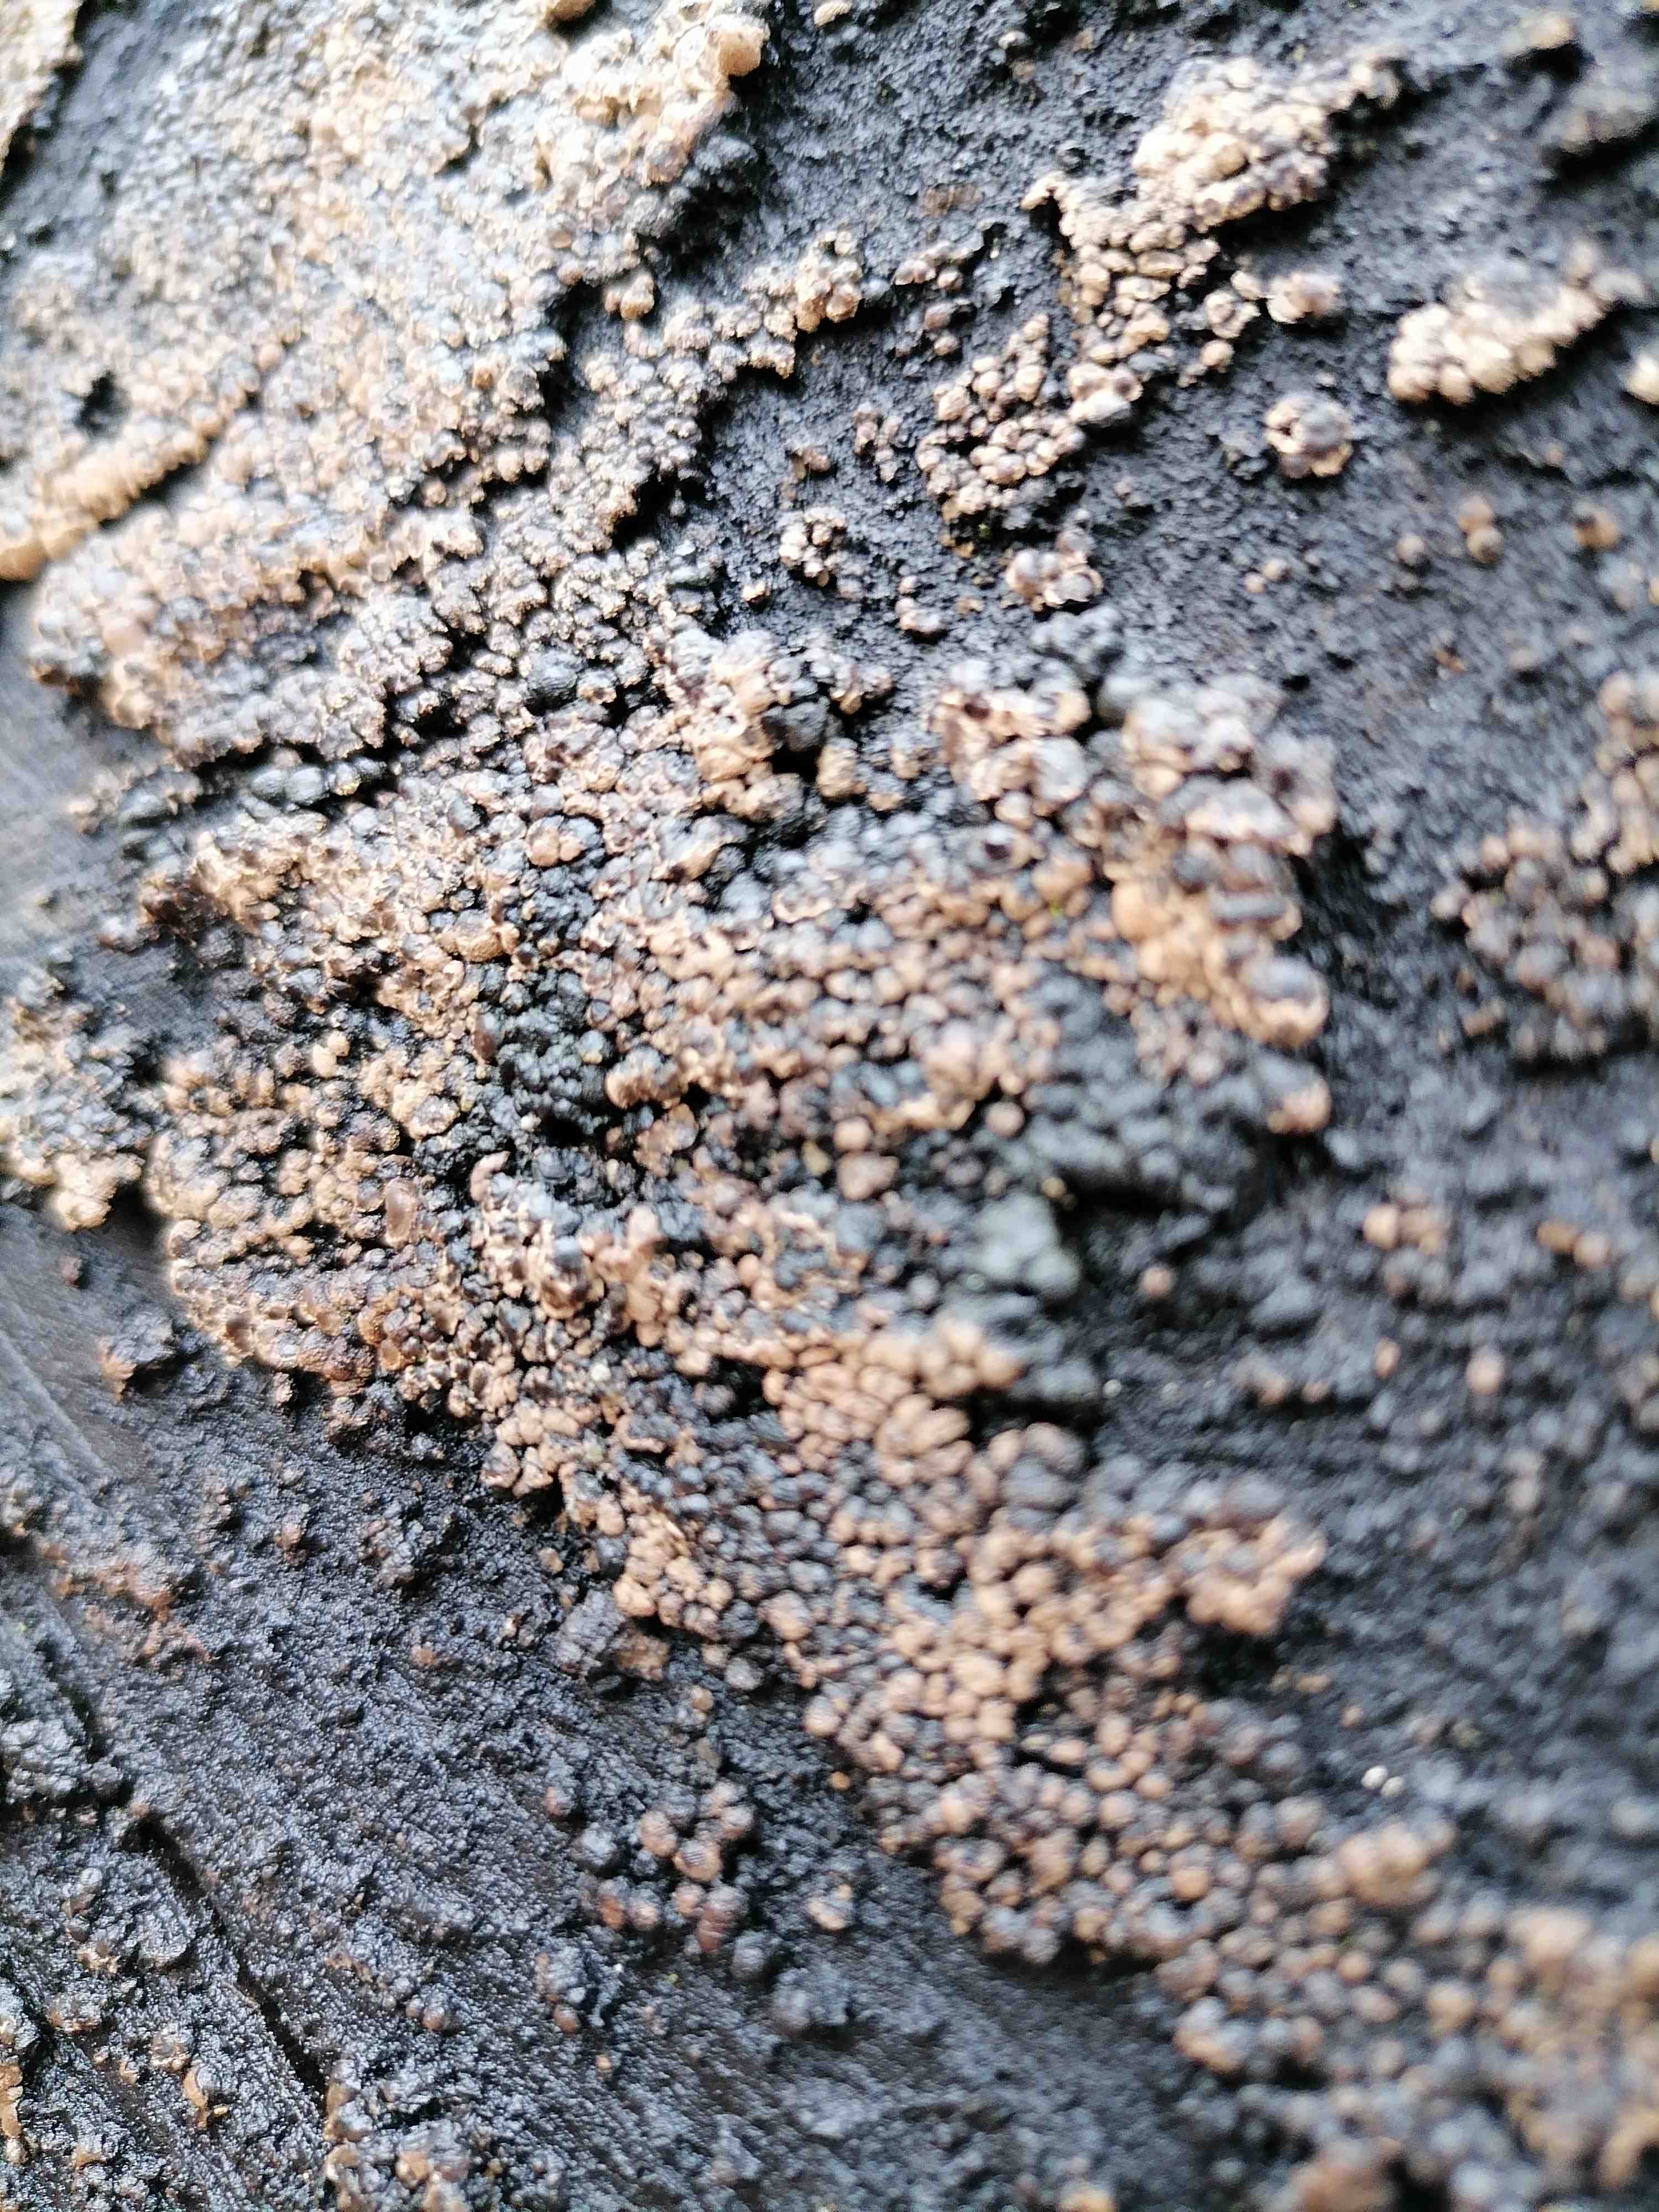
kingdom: Fungi
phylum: Ascomycota
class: Sordariomycetes
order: Xylariales
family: Hypoxylaceae
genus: Jackrogersella
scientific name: Jackrogersella cohaerens
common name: sammenflydende kulbær
